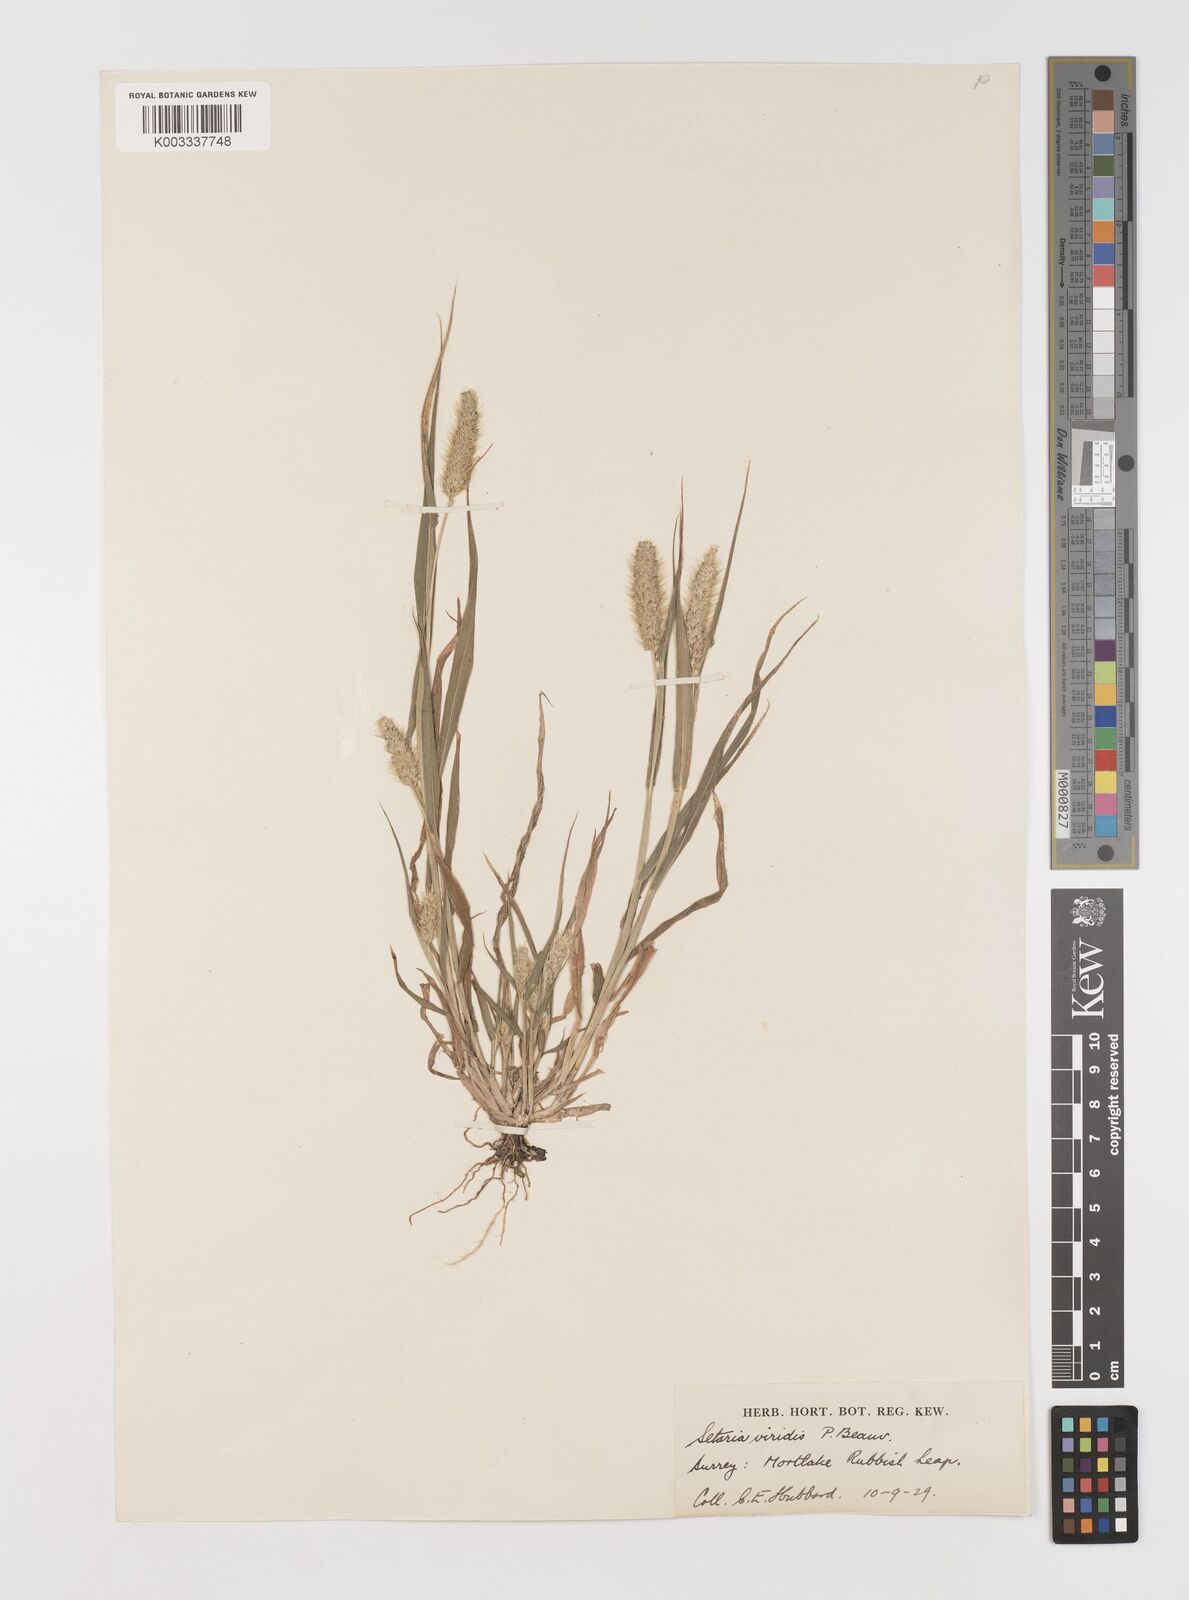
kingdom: Plantae
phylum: Tracheophyta
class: Liliopsida
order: Poales
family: Poaceae
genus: Setaria
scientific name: Setaria viridis
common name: Green bristlegrass
